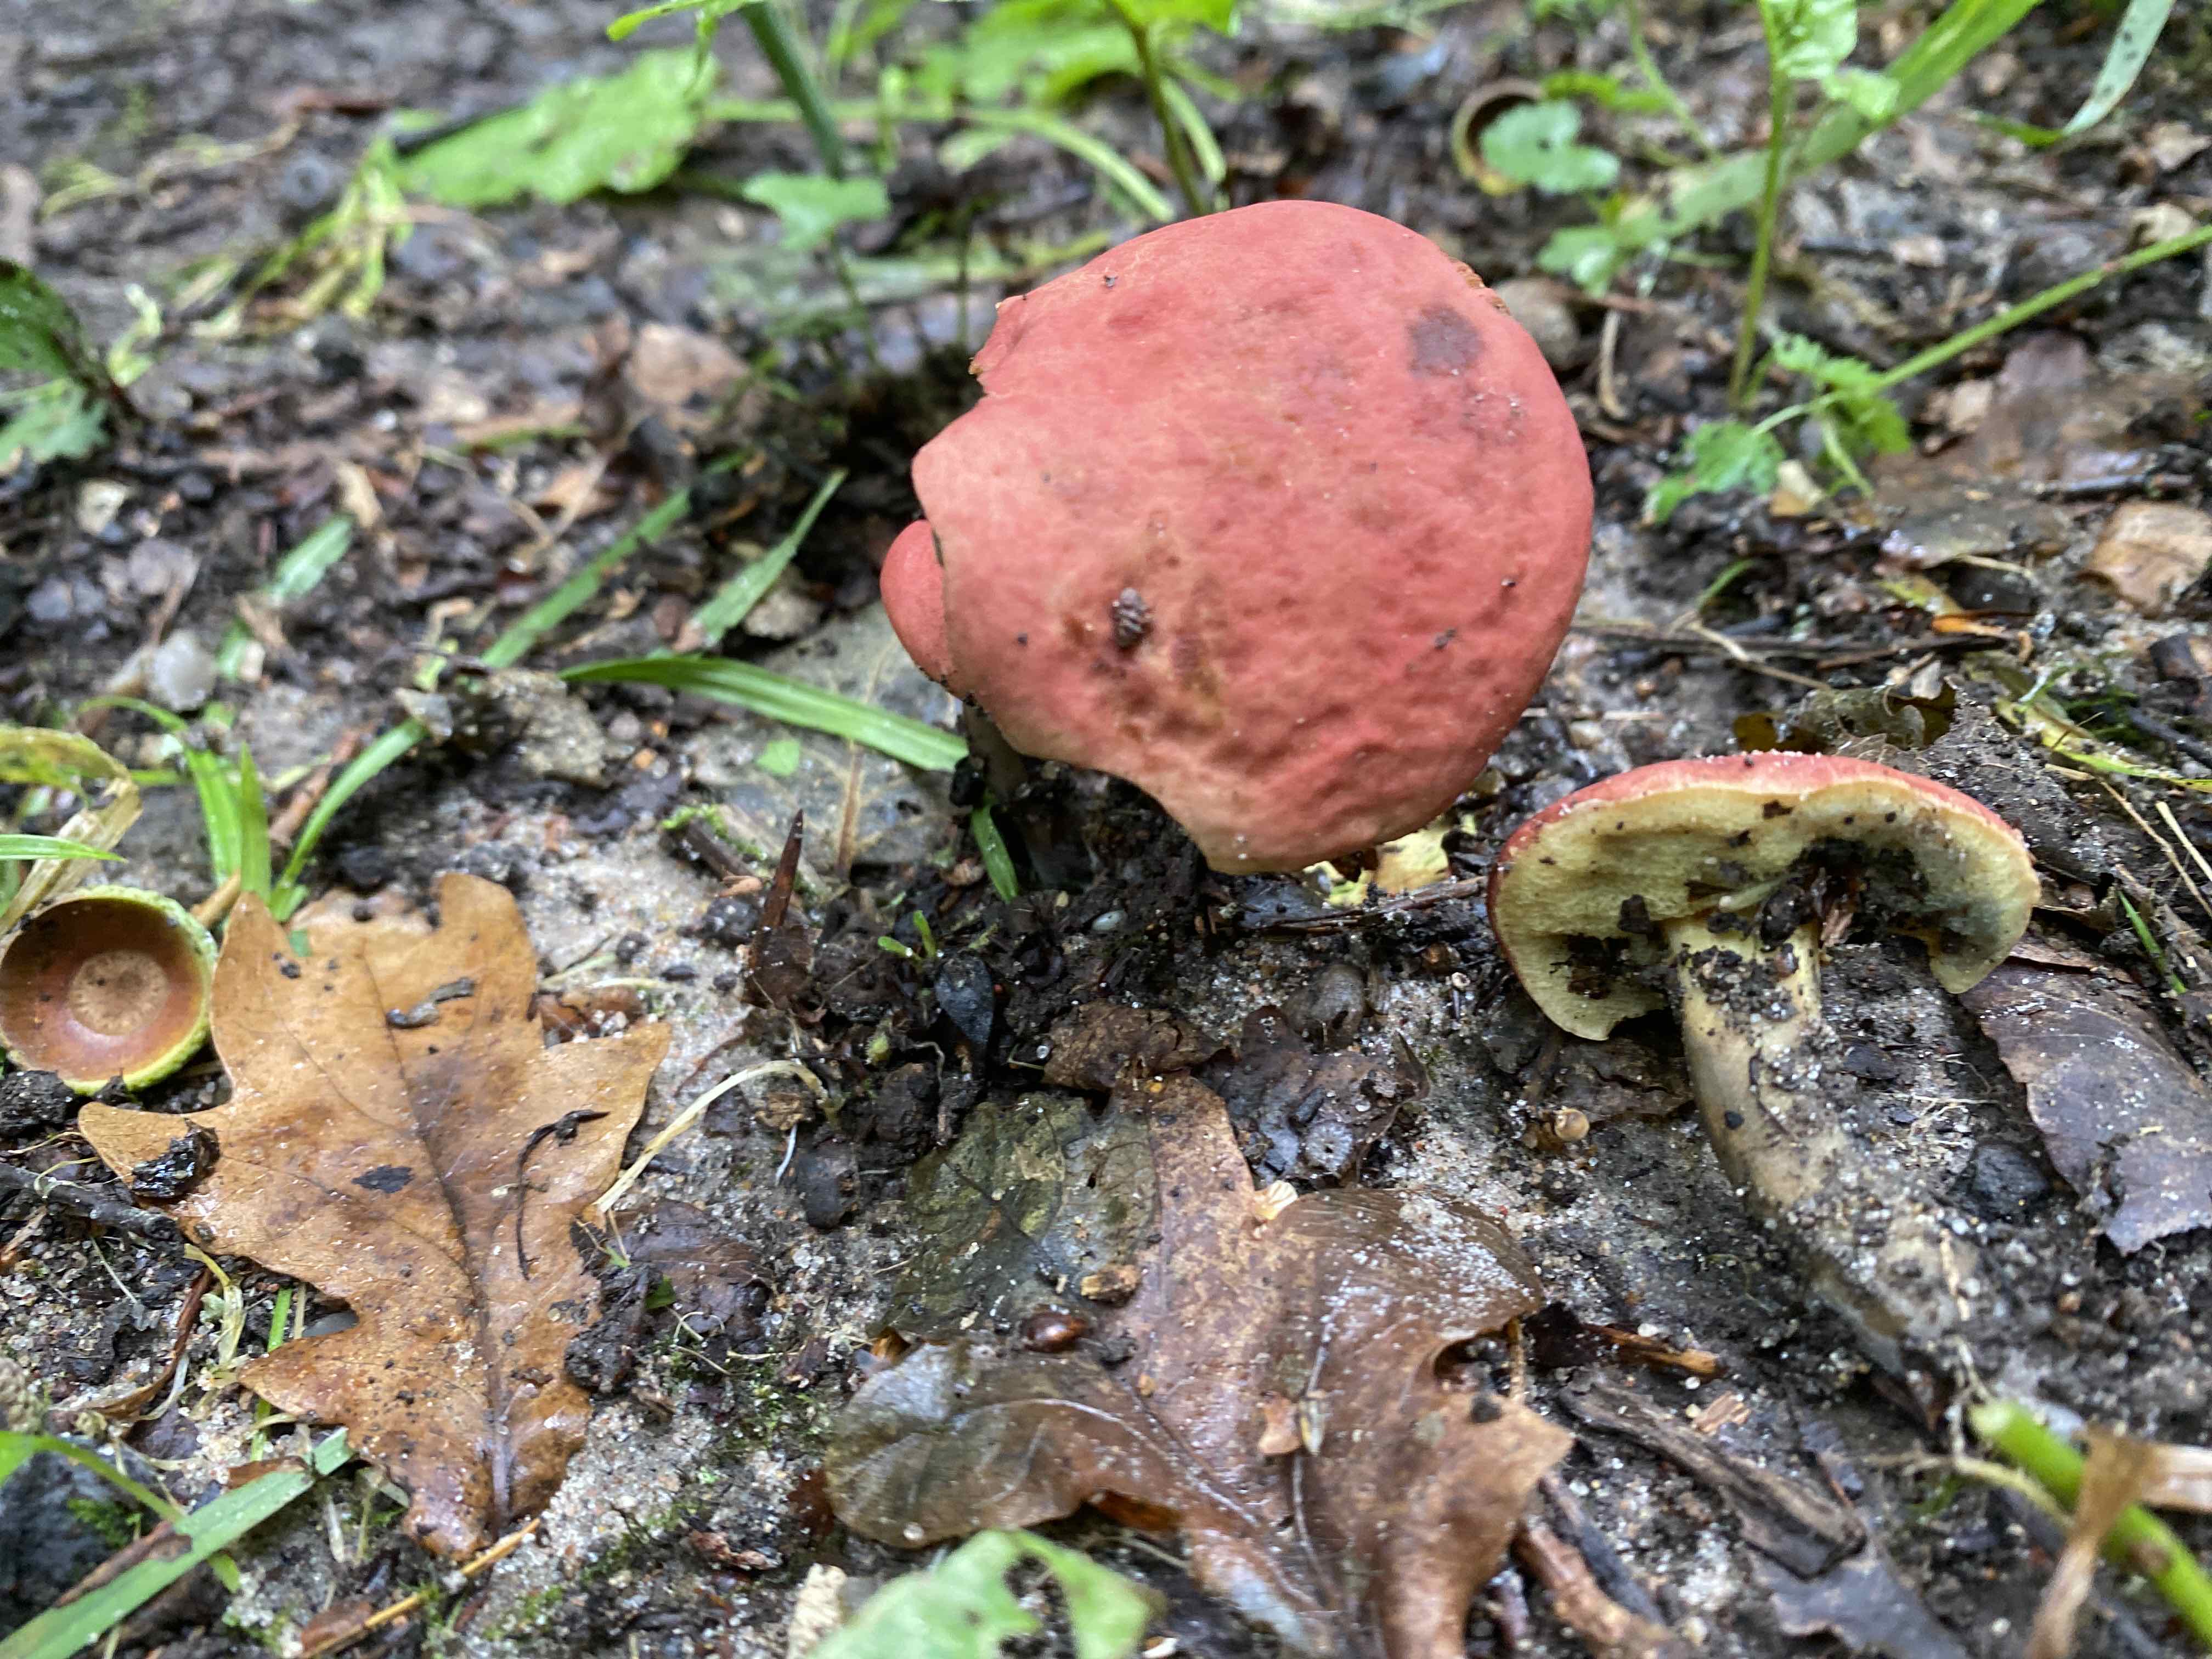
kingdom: Fungi
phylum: Basidiomycota
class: Agaricomycetes
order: Boletales
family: Boletaceae
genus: Hortiboletus
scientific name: Hortiboletus rubellus
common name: blodrød rørhat
